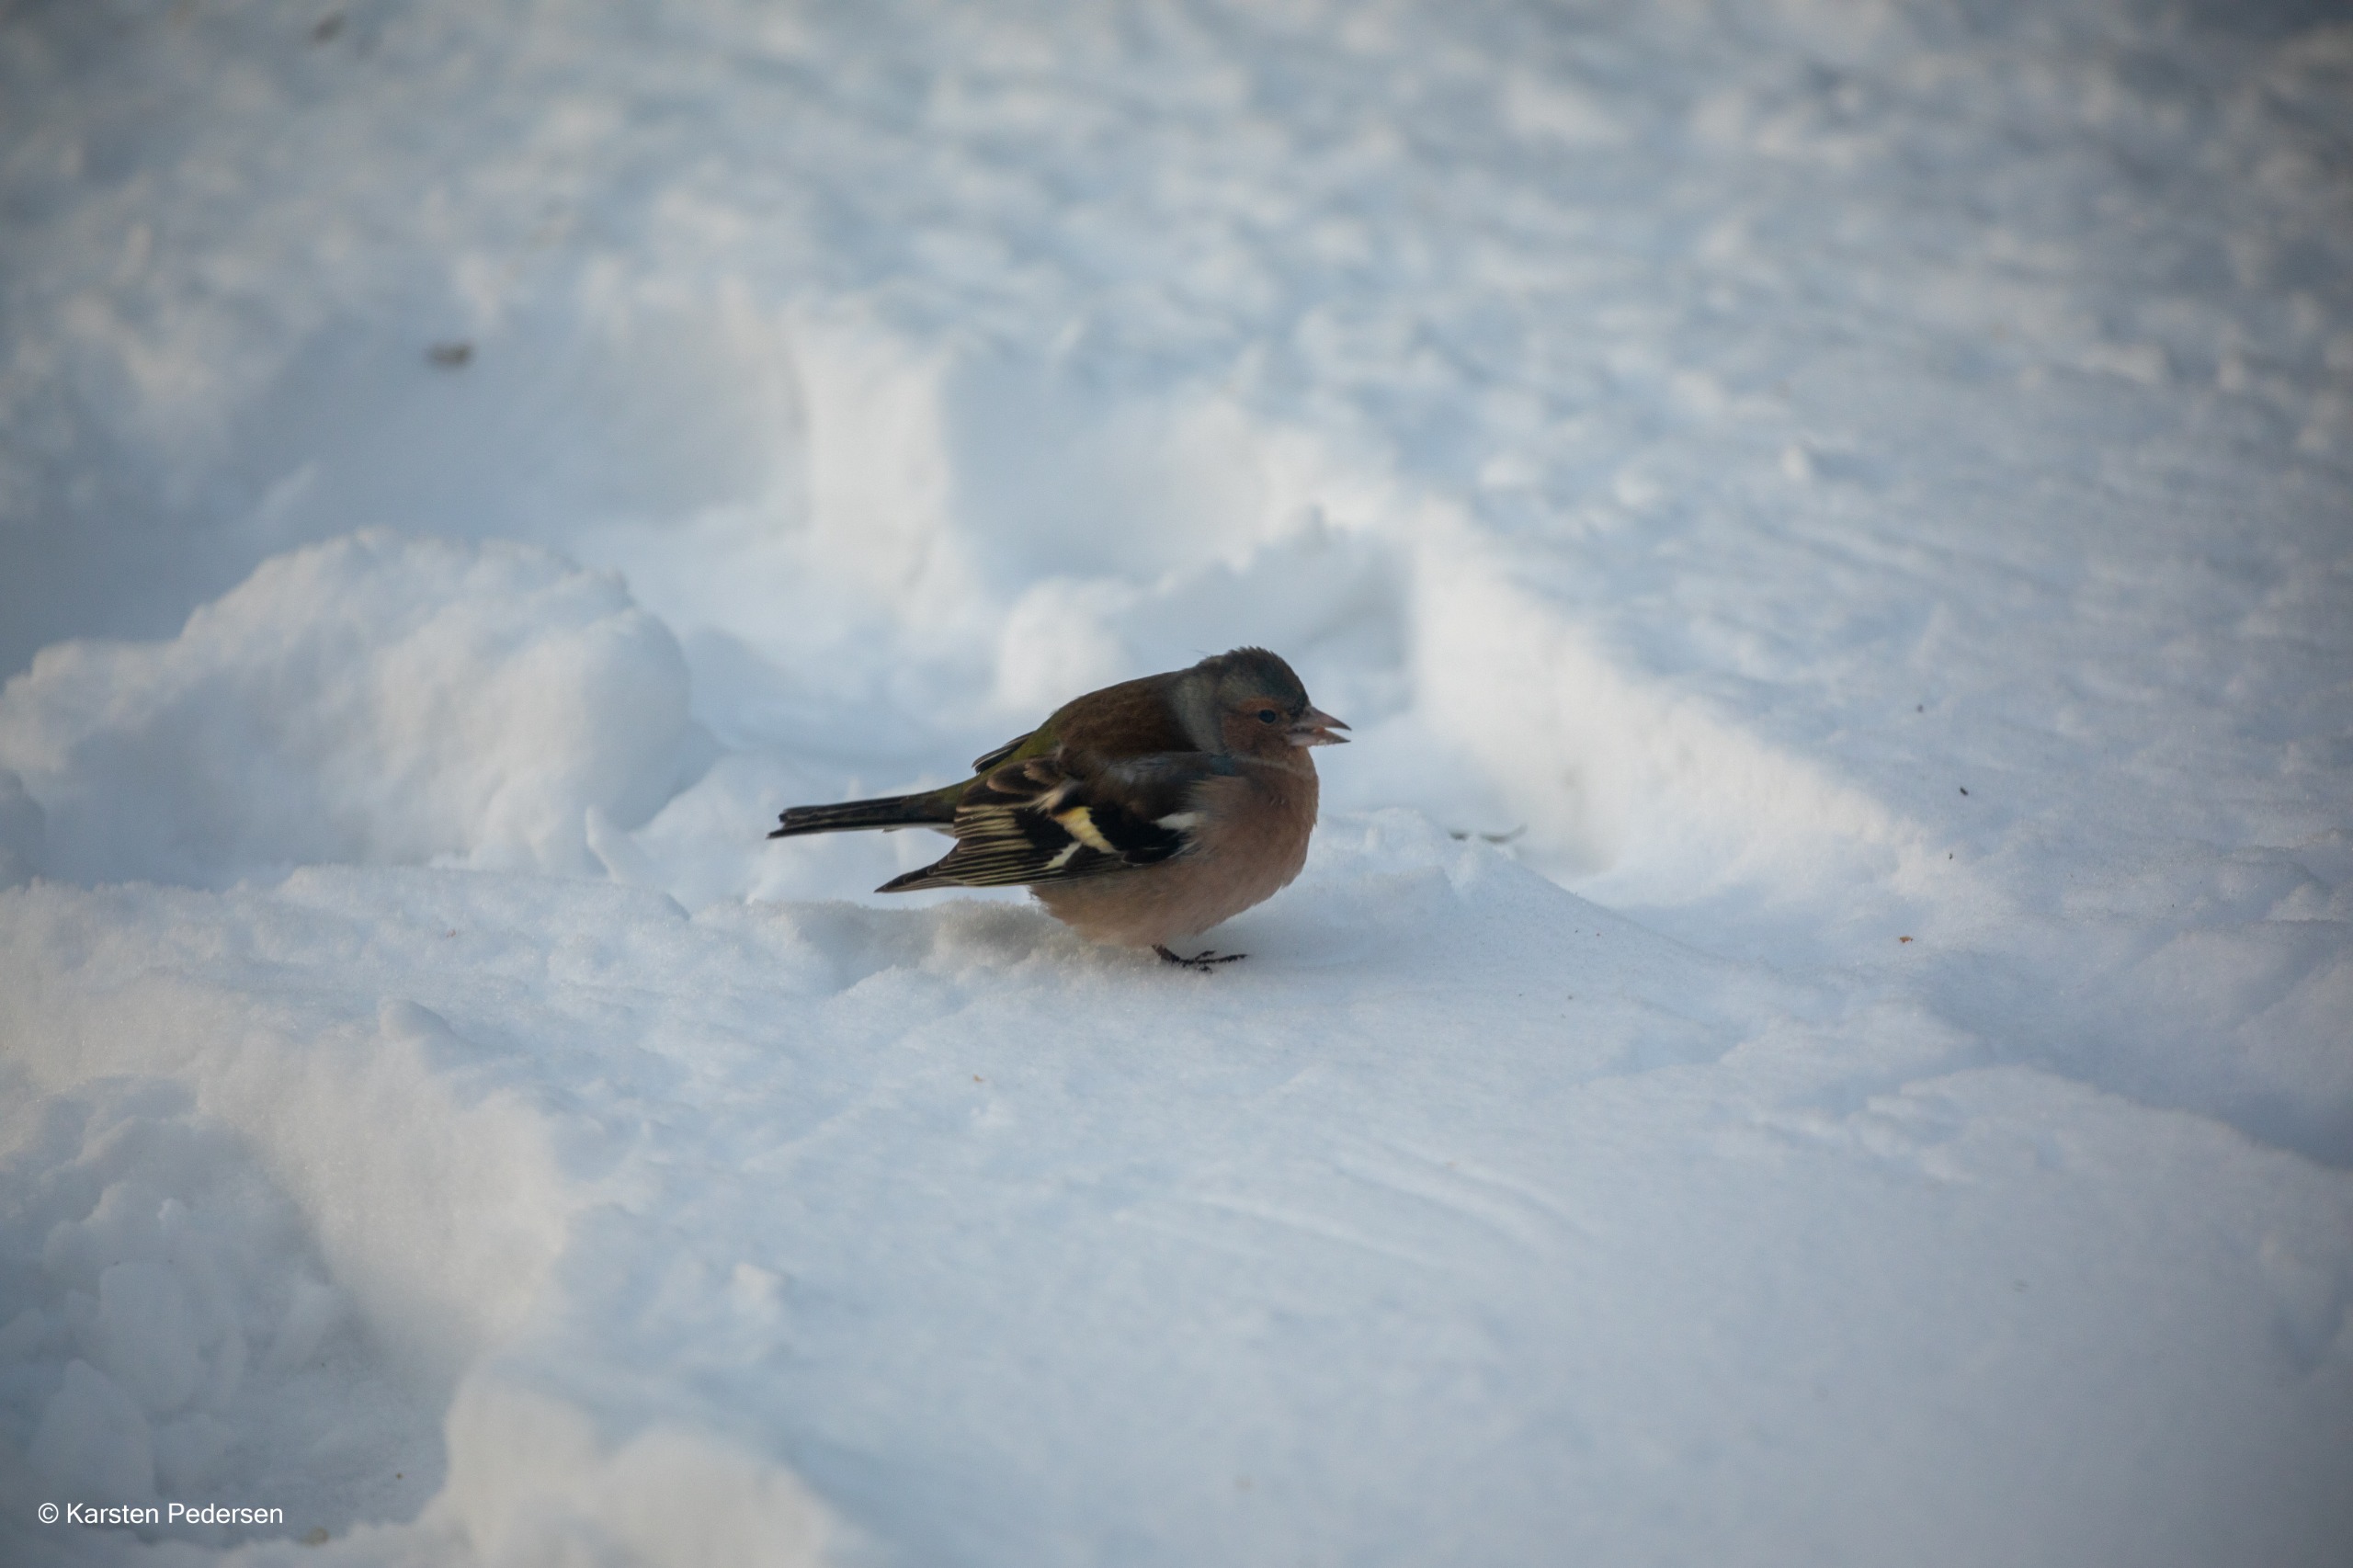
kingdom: Animalia
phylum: Chordata
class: Aves
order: Passeriformes
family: Fringillidae
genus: Fringilla
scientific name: Fringilla coelebs
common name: Bogfinke
